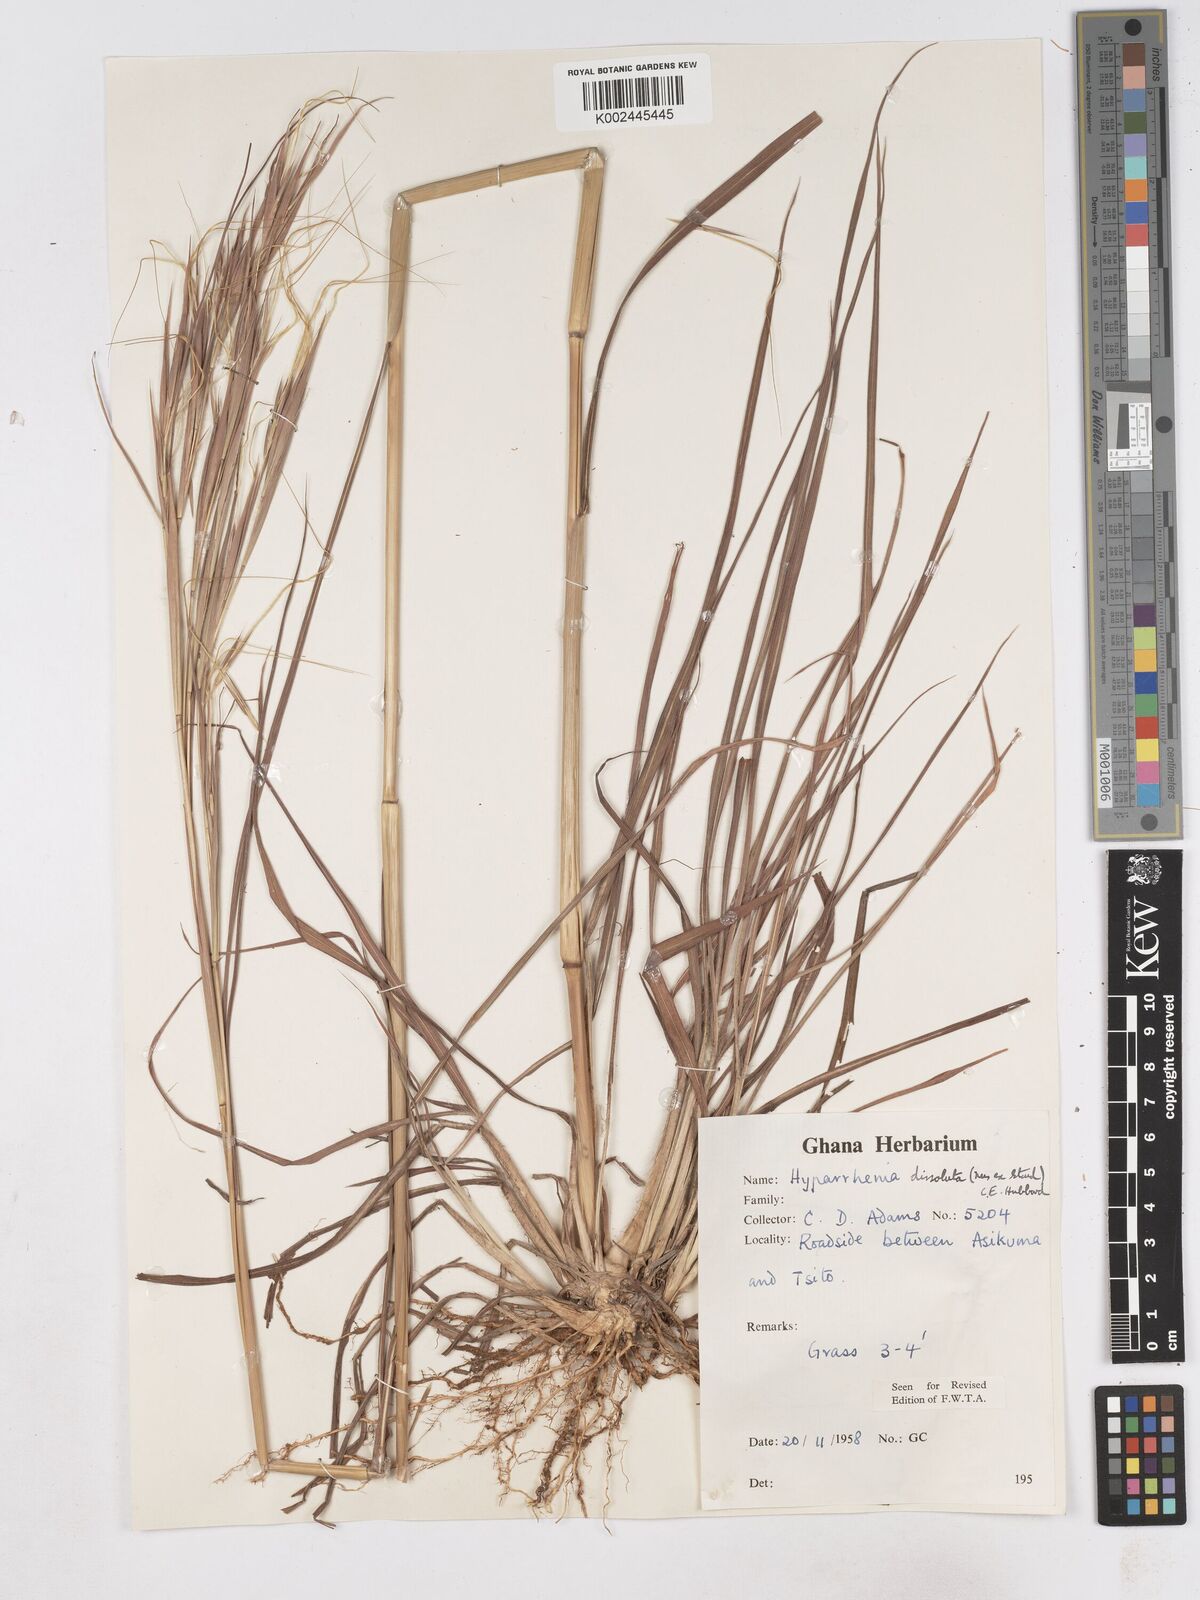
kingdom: Plantae
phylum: Tracheophyta
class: Liliopsida
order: Poales
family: Poaceae
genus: Hyperthelia
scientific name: Hyperthelia dissoluta
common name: Yellow thatching grass
